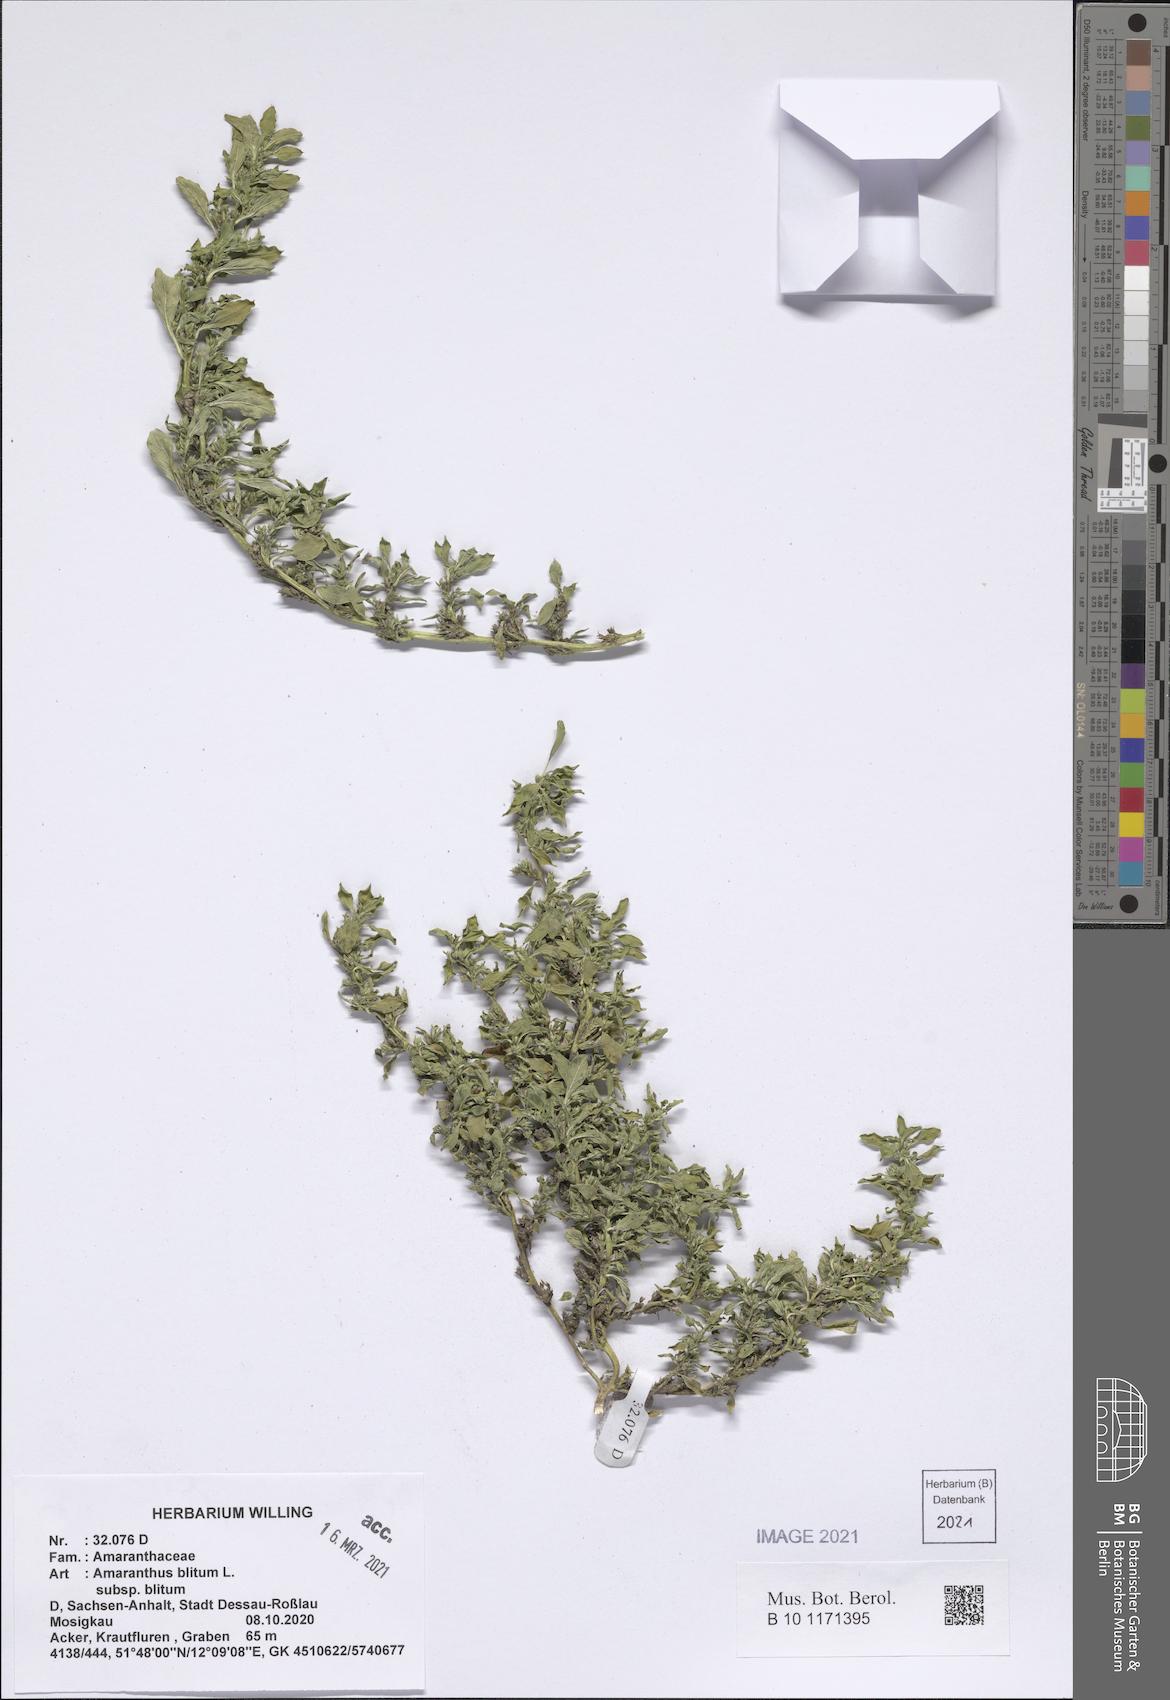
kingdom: Plantae
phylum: Tracheophyta
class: Magnoliopsida
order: Caryophyllales
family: Amaranthaceae
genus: Amaranthus
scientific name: Amaranthus blitum
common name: Purple amaranth
